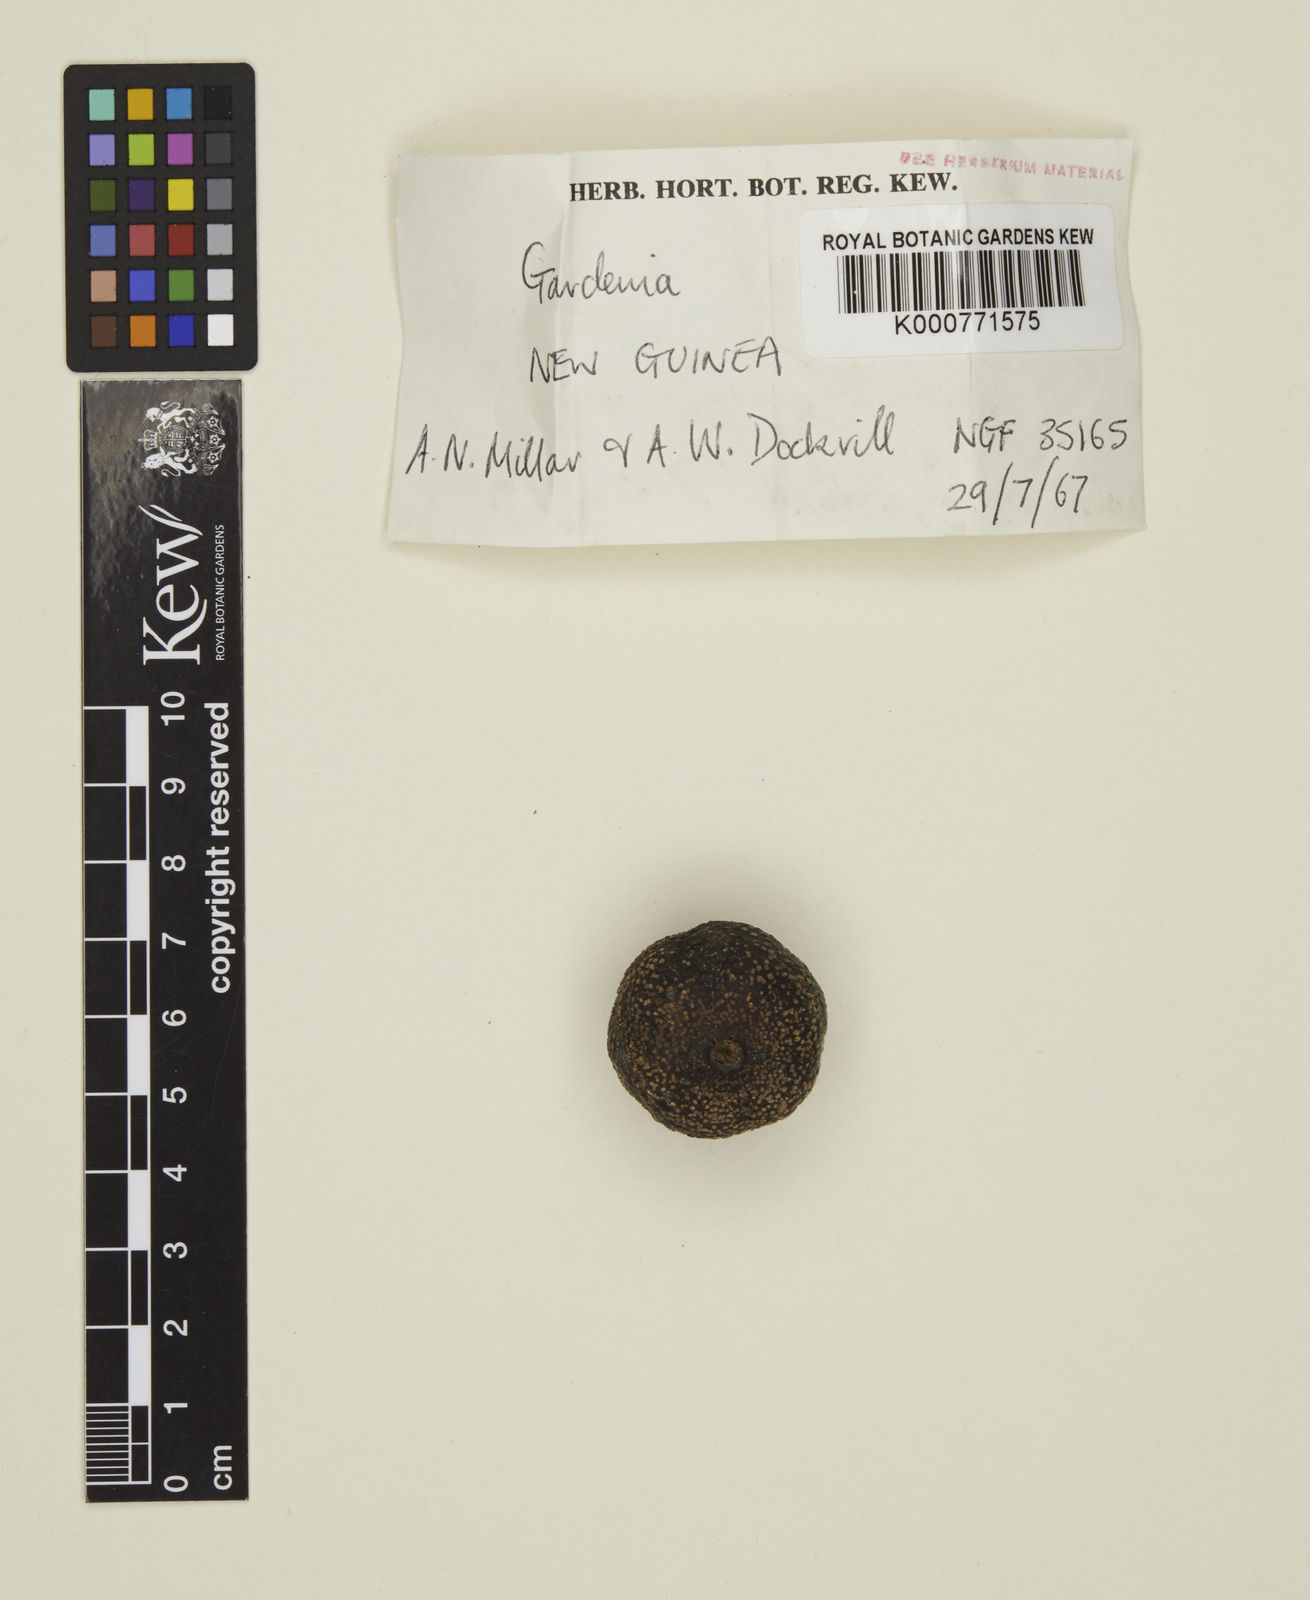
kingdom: Plantae
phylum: Tracheophyta
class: Magnoliopsida
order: Gentianales
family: Rubiaceae
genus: Gardenia
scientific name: Gardenia gjellerupii
